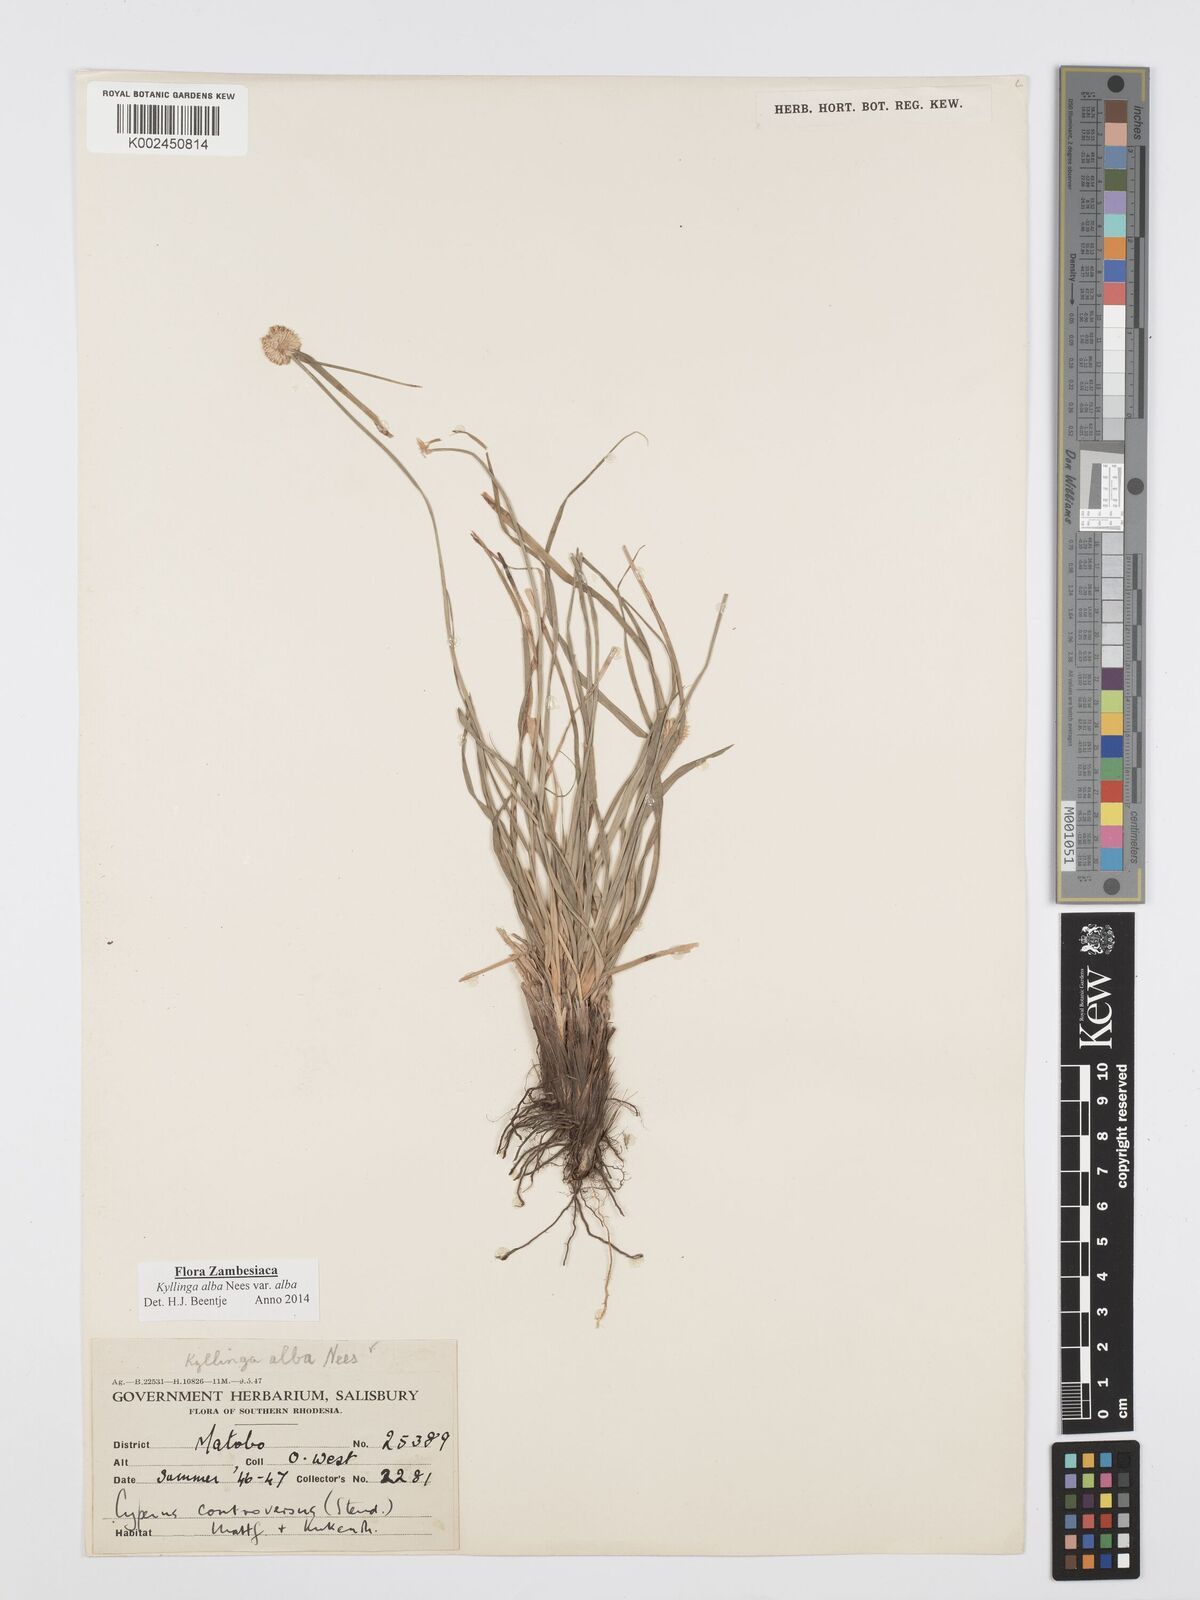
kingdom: Plantae
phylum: Tracheophyta
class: Liliopsida
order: Poales
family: Cyperaceae
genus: Cyperus
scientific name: Cyperus
